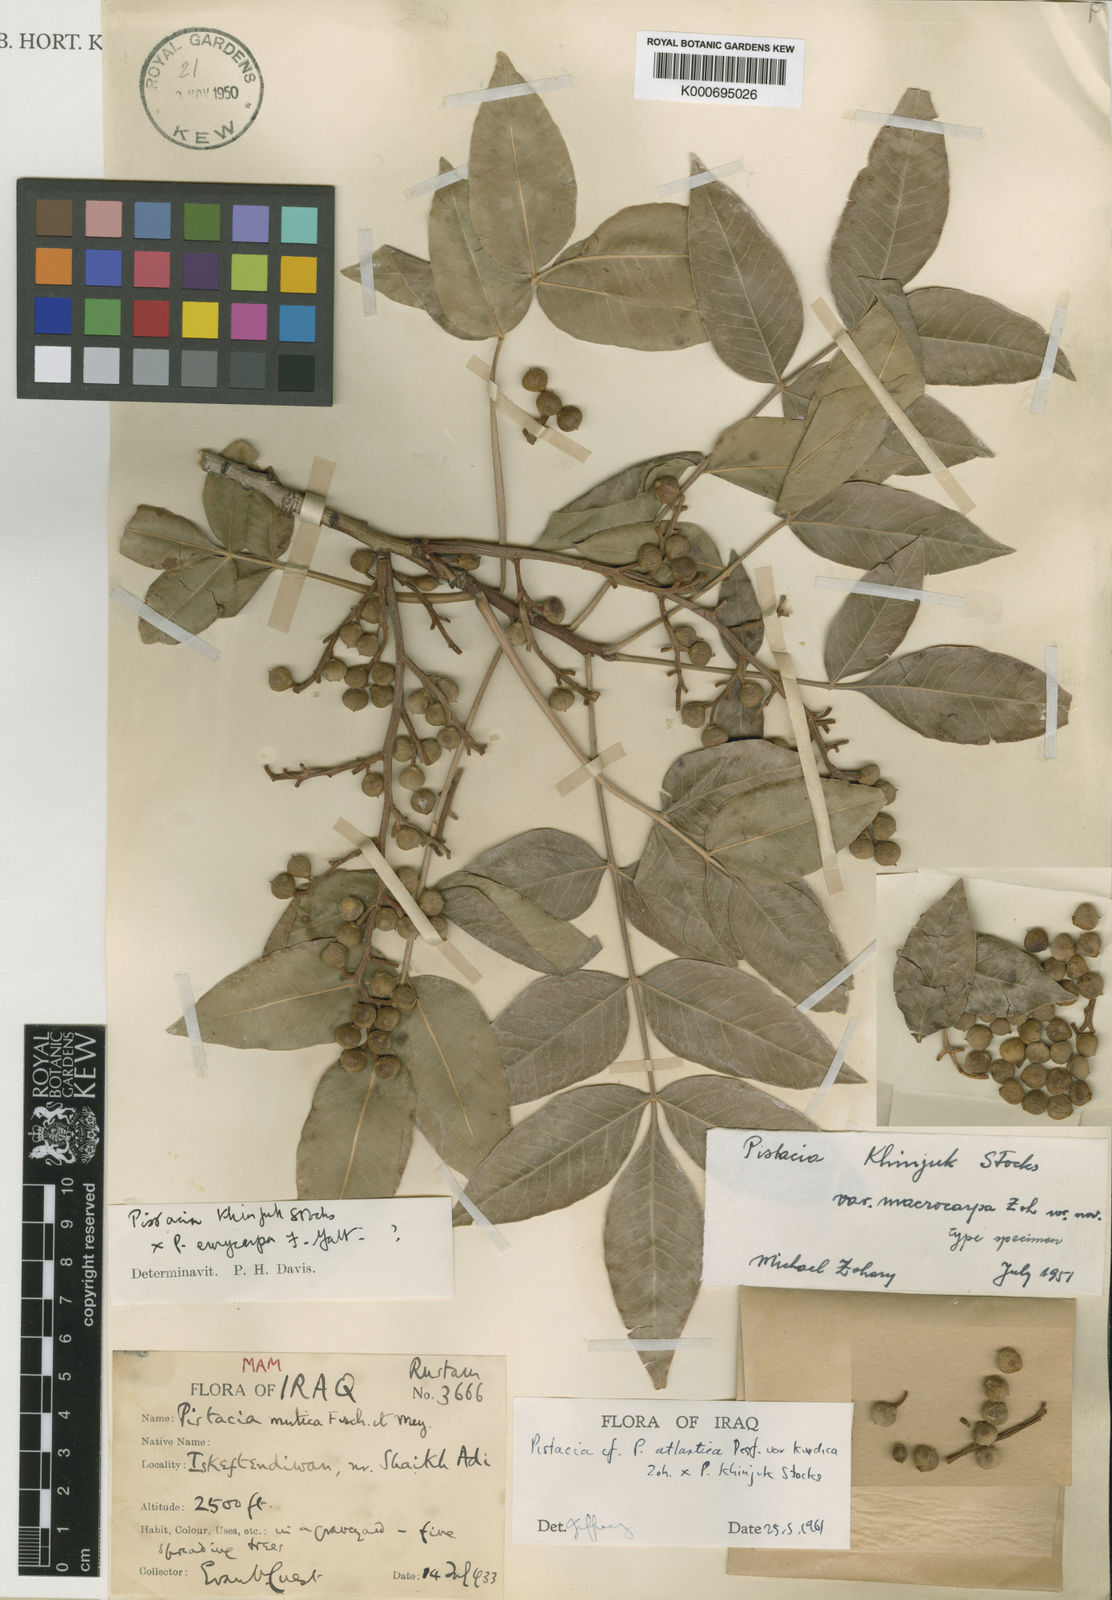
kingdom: Plantae
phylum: Tracheophyta
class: Magnoliopsida
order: Sapindales
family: Anacardiaceae
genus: Pistacia
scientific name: Pistacia khinjuk
